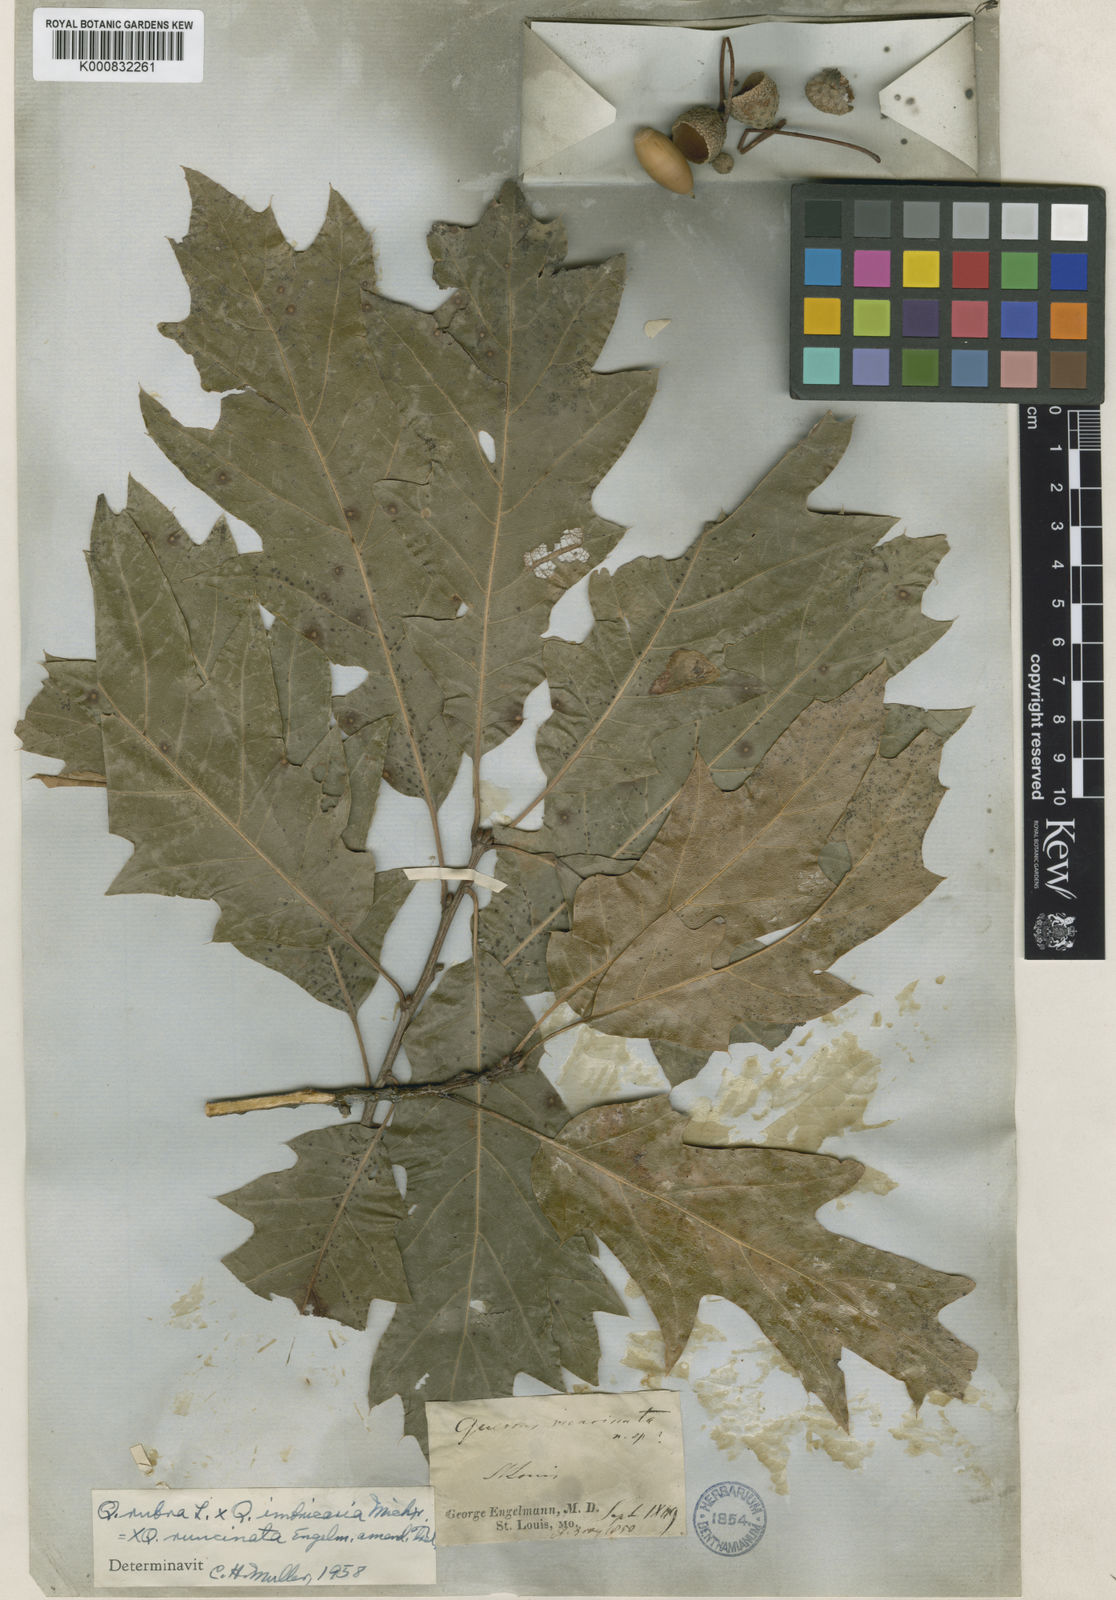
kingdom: Plantae
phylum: Tracheophyta
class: Magnoliopsida
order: Fagales
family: Fagaceae
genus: Quercus
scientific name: Quercus imbricaria
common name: Shingle oak
